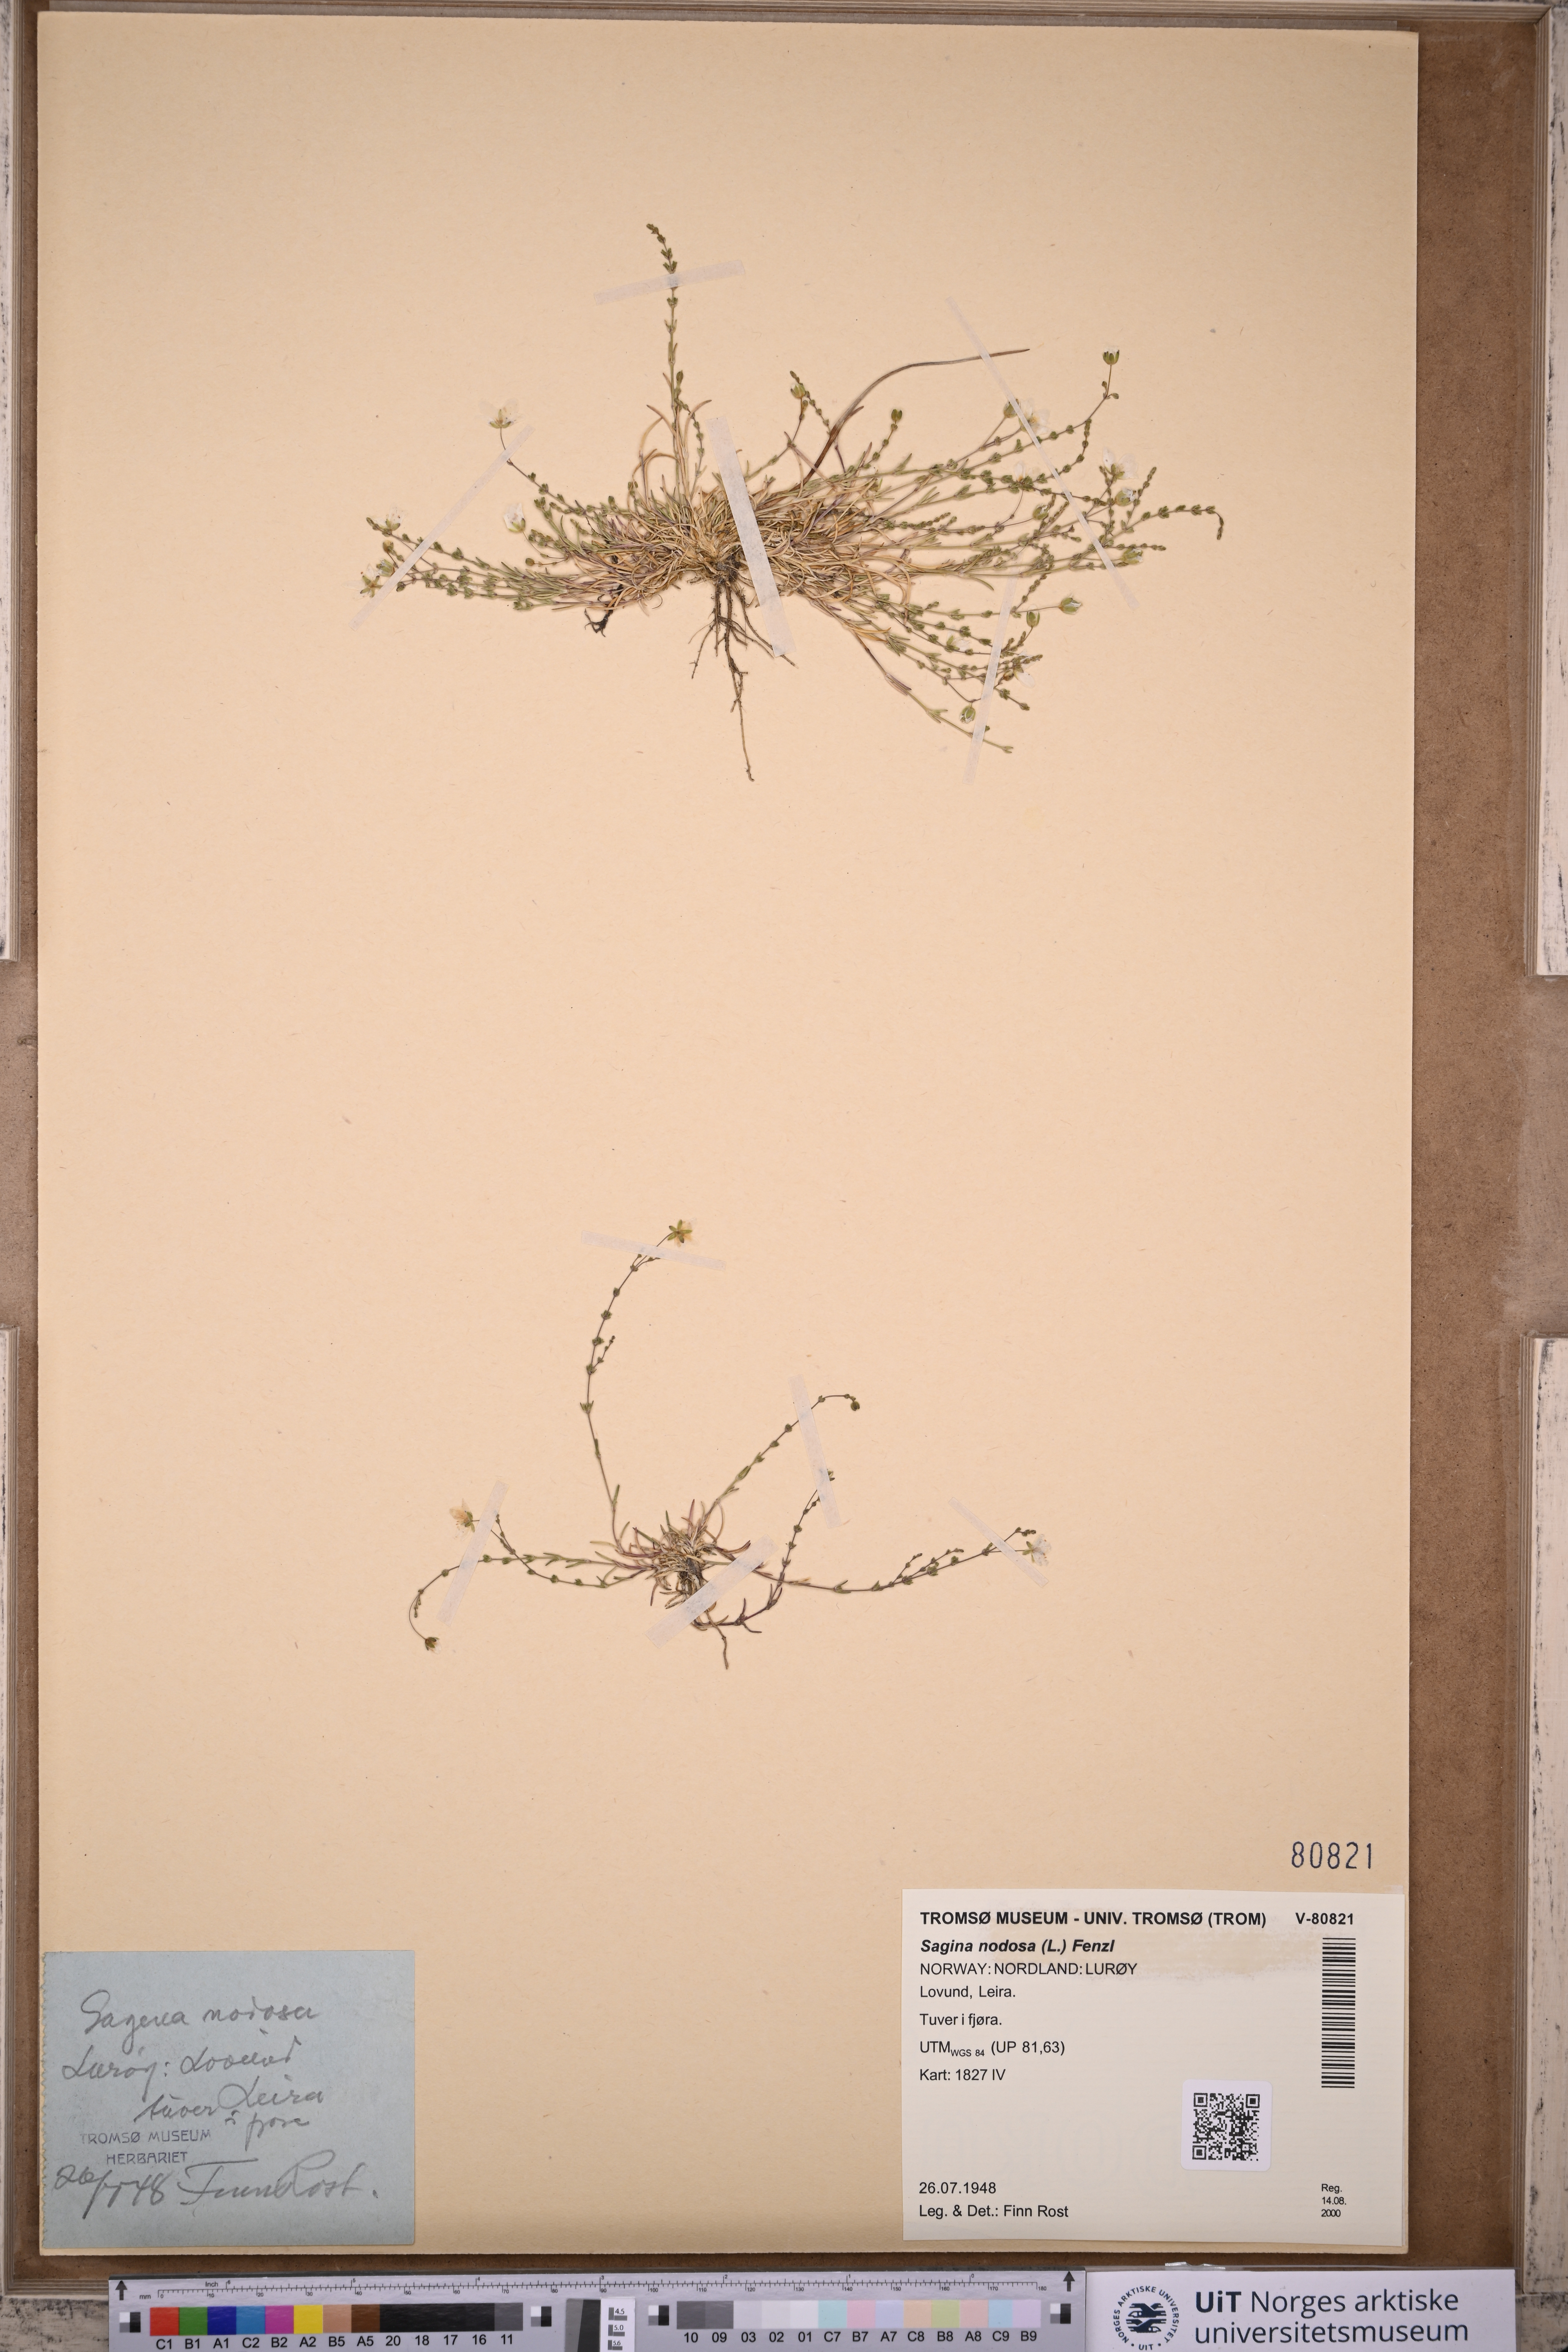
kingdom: Plantae
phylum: Tracheophyta
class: Magnoliopsida
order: Caryophyllales
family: Caryophyllaceae
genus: Sagina
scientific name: Sagina nodosa
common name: Knotted pearlwort
